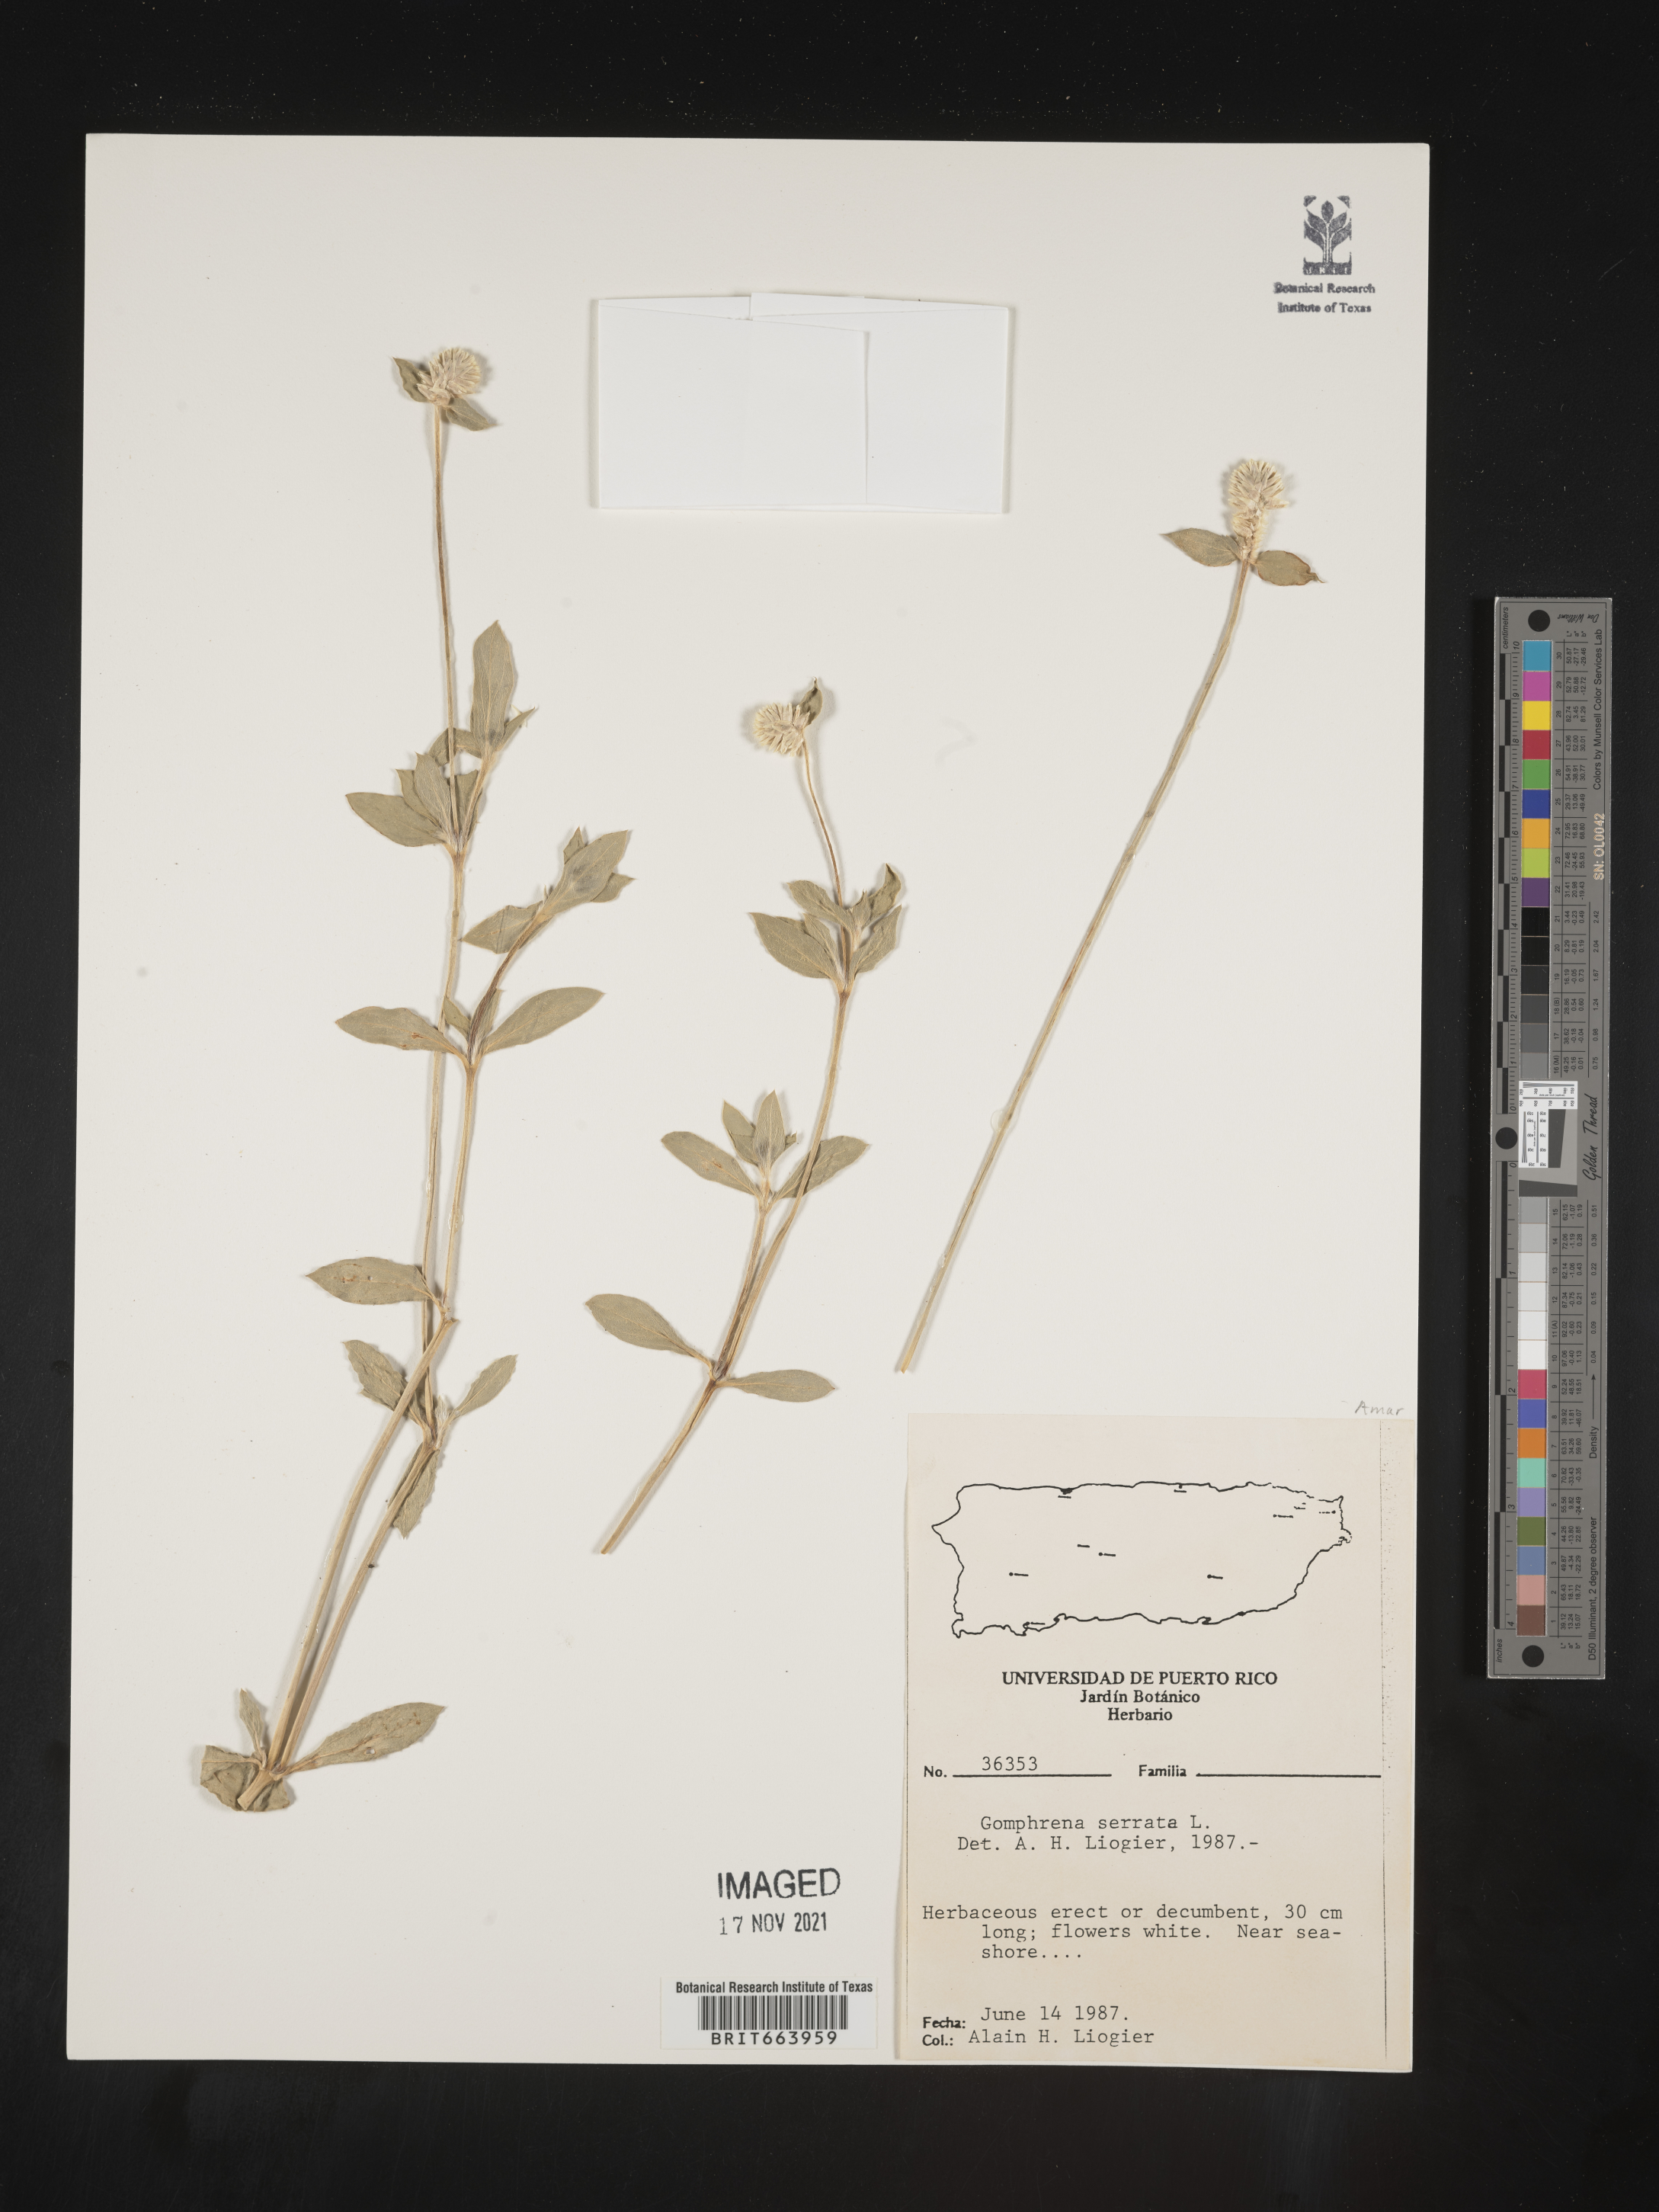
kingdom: Plantae
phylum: Tracheophyta
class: Magnoliopsida
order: Caryophyllales
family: Amaranthaceae
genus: Gomphrena
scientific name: Gomphrena
